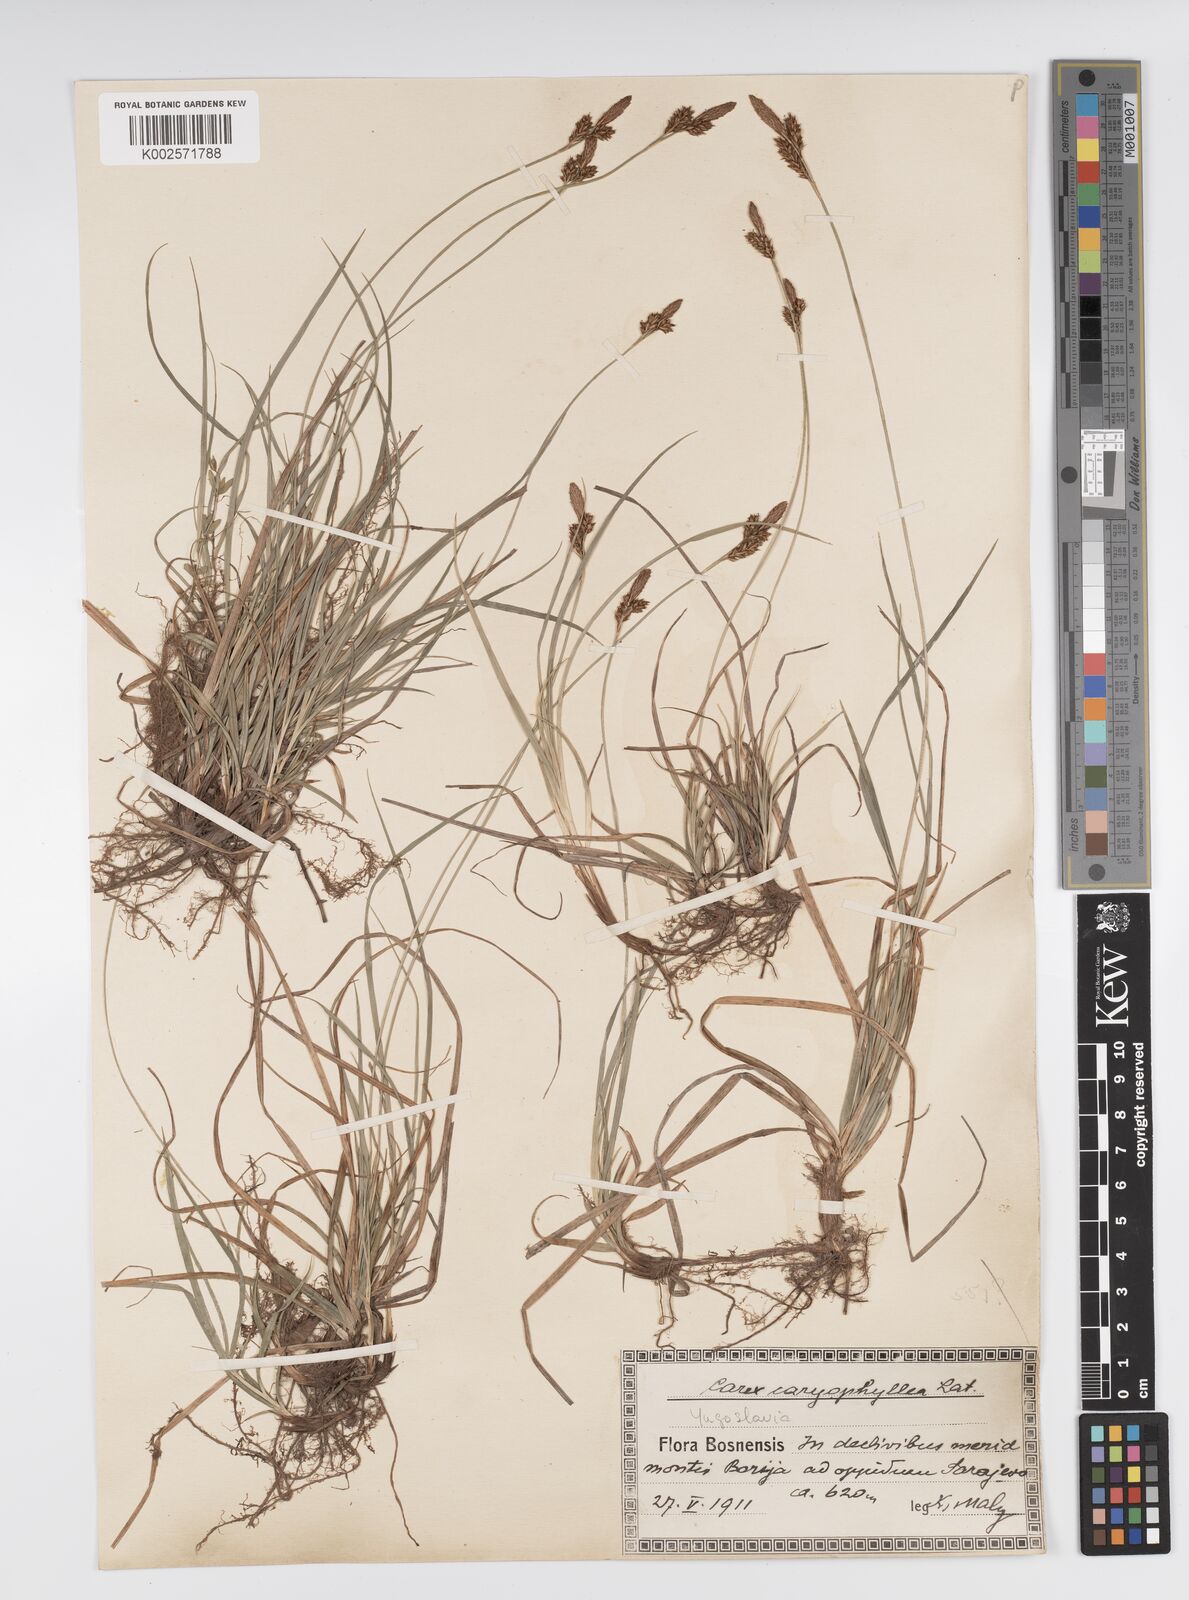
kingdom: Plantae
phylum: Tracheophyta
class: Liliopsida
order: Poales
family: Cyperaceae
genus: Carex
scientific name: Carex caryophyllea
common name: Spring sedge
